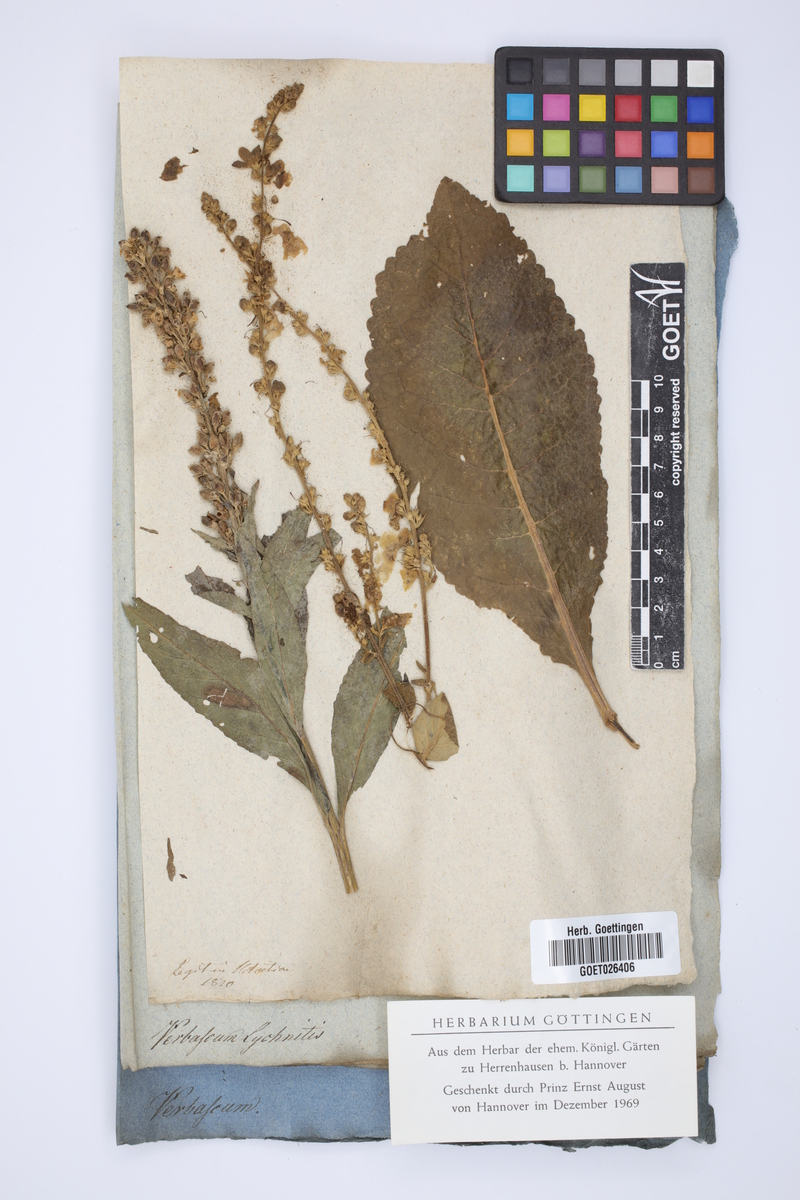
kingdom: Plantae
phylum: Tracheophyta
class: Magnoliopsida
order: Lamiales
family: Scrophulariaceae
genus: Verbascum
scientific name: Verbascum lychnitis
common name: White mullein
